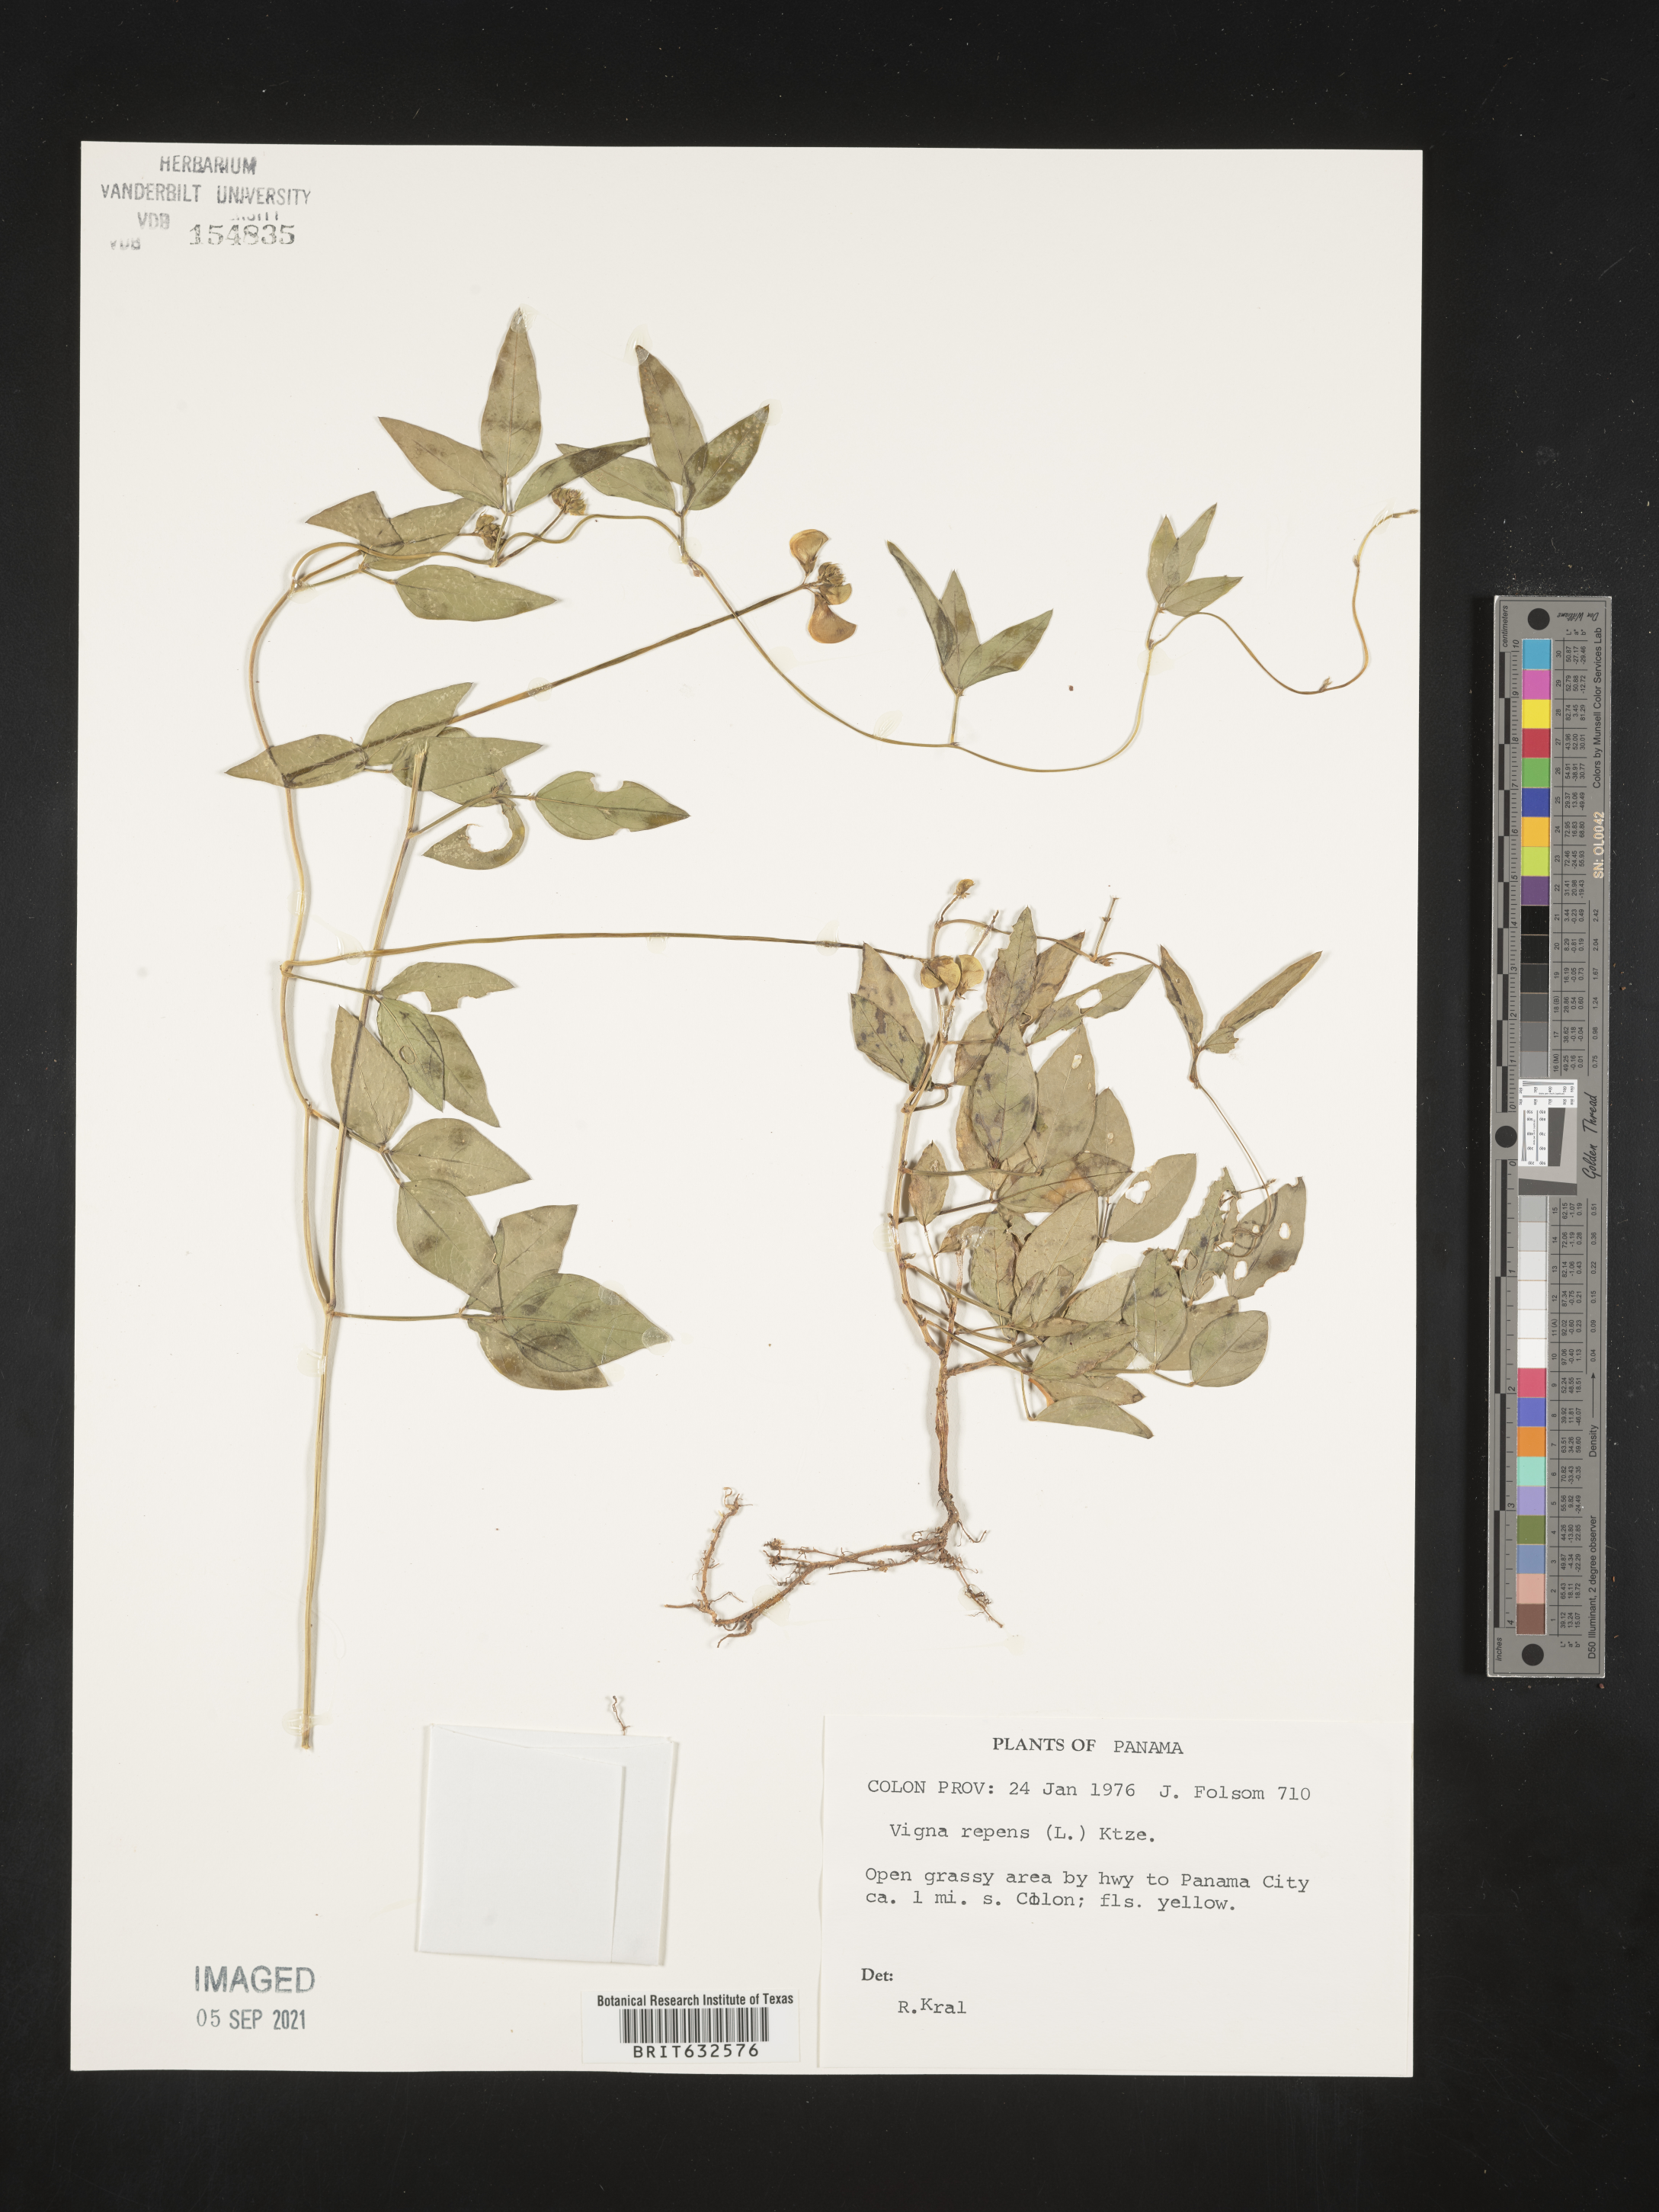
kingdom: Plantae
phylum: Tracheophyta
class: Magnoliopsida
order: Fabales
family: Fabaceae
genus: Vigna
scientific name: Vigna
